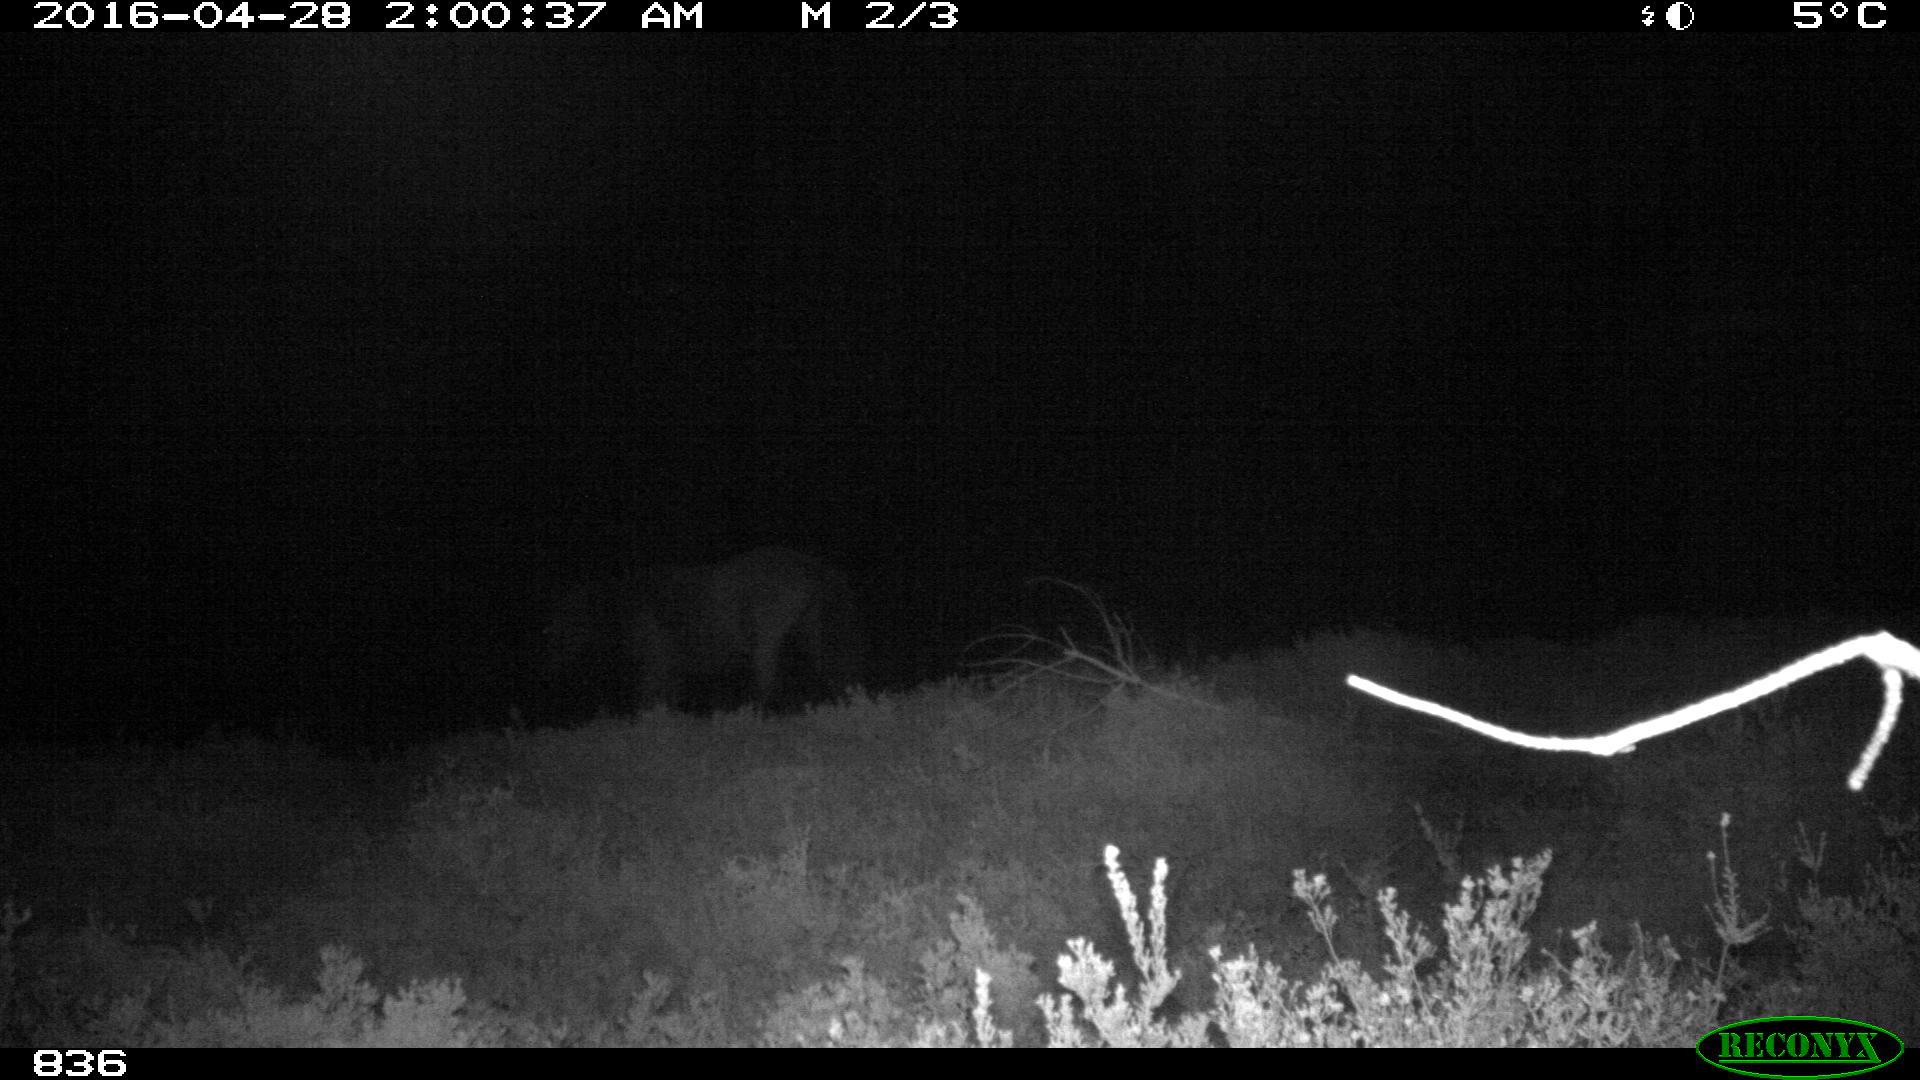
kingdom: Animalia
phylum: Chordata
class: Mammalia
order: Perissodactyla
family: Equidae
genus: Equus
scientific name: Equus caballus
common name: Horse
